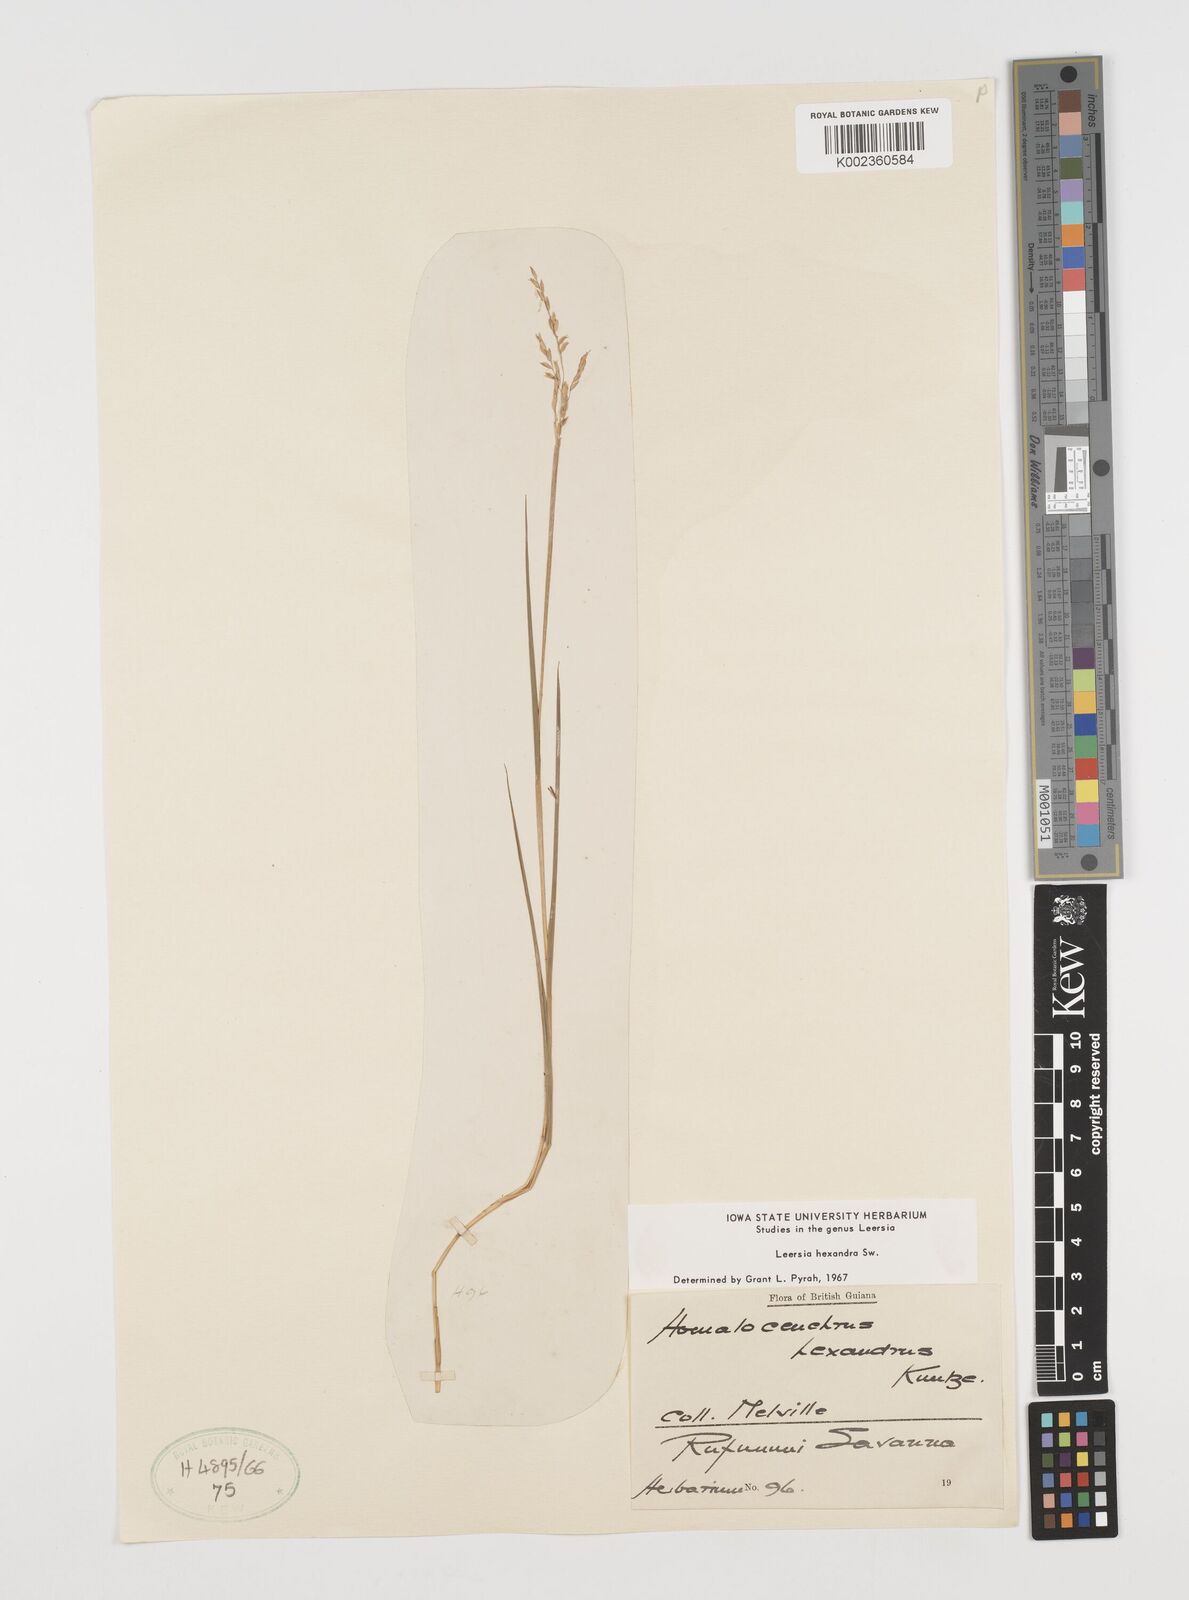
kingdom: Plantae
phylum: Tracheophyta
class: Liliopsida
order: Poales
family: Poaceae
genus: Leersia
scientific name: Leersia hexandra
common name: Southern cut grass
